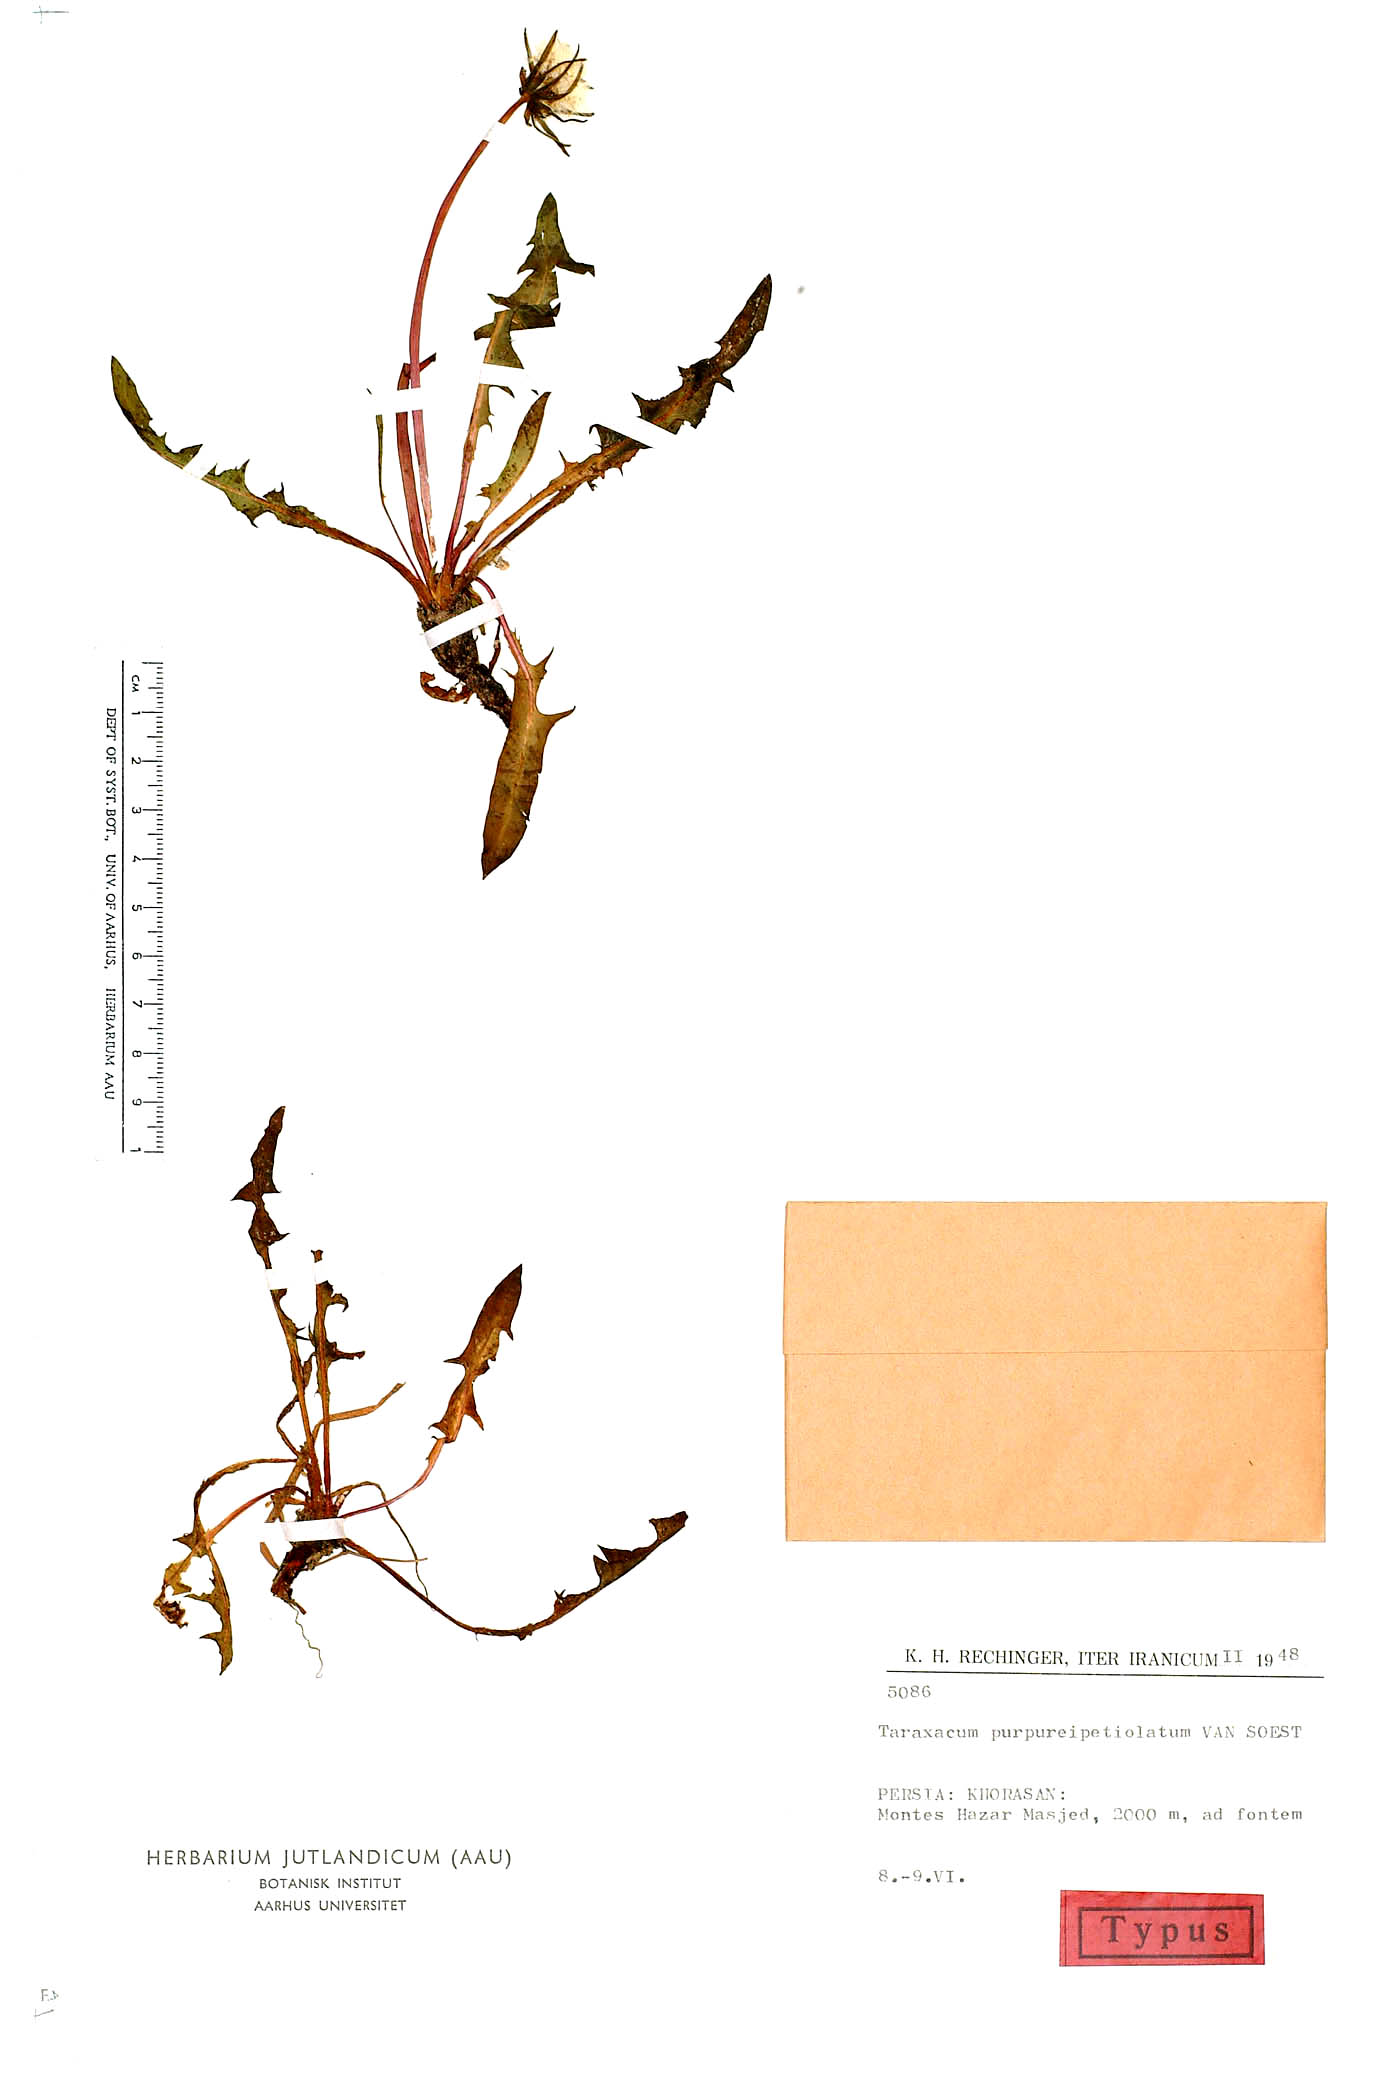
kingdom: Plantae
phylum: Tracheophyta
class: Magnoliopsida
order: Asterales
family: Asteraceae
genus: Taraxacum
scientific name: Taraxacum purpureipetiolatum
